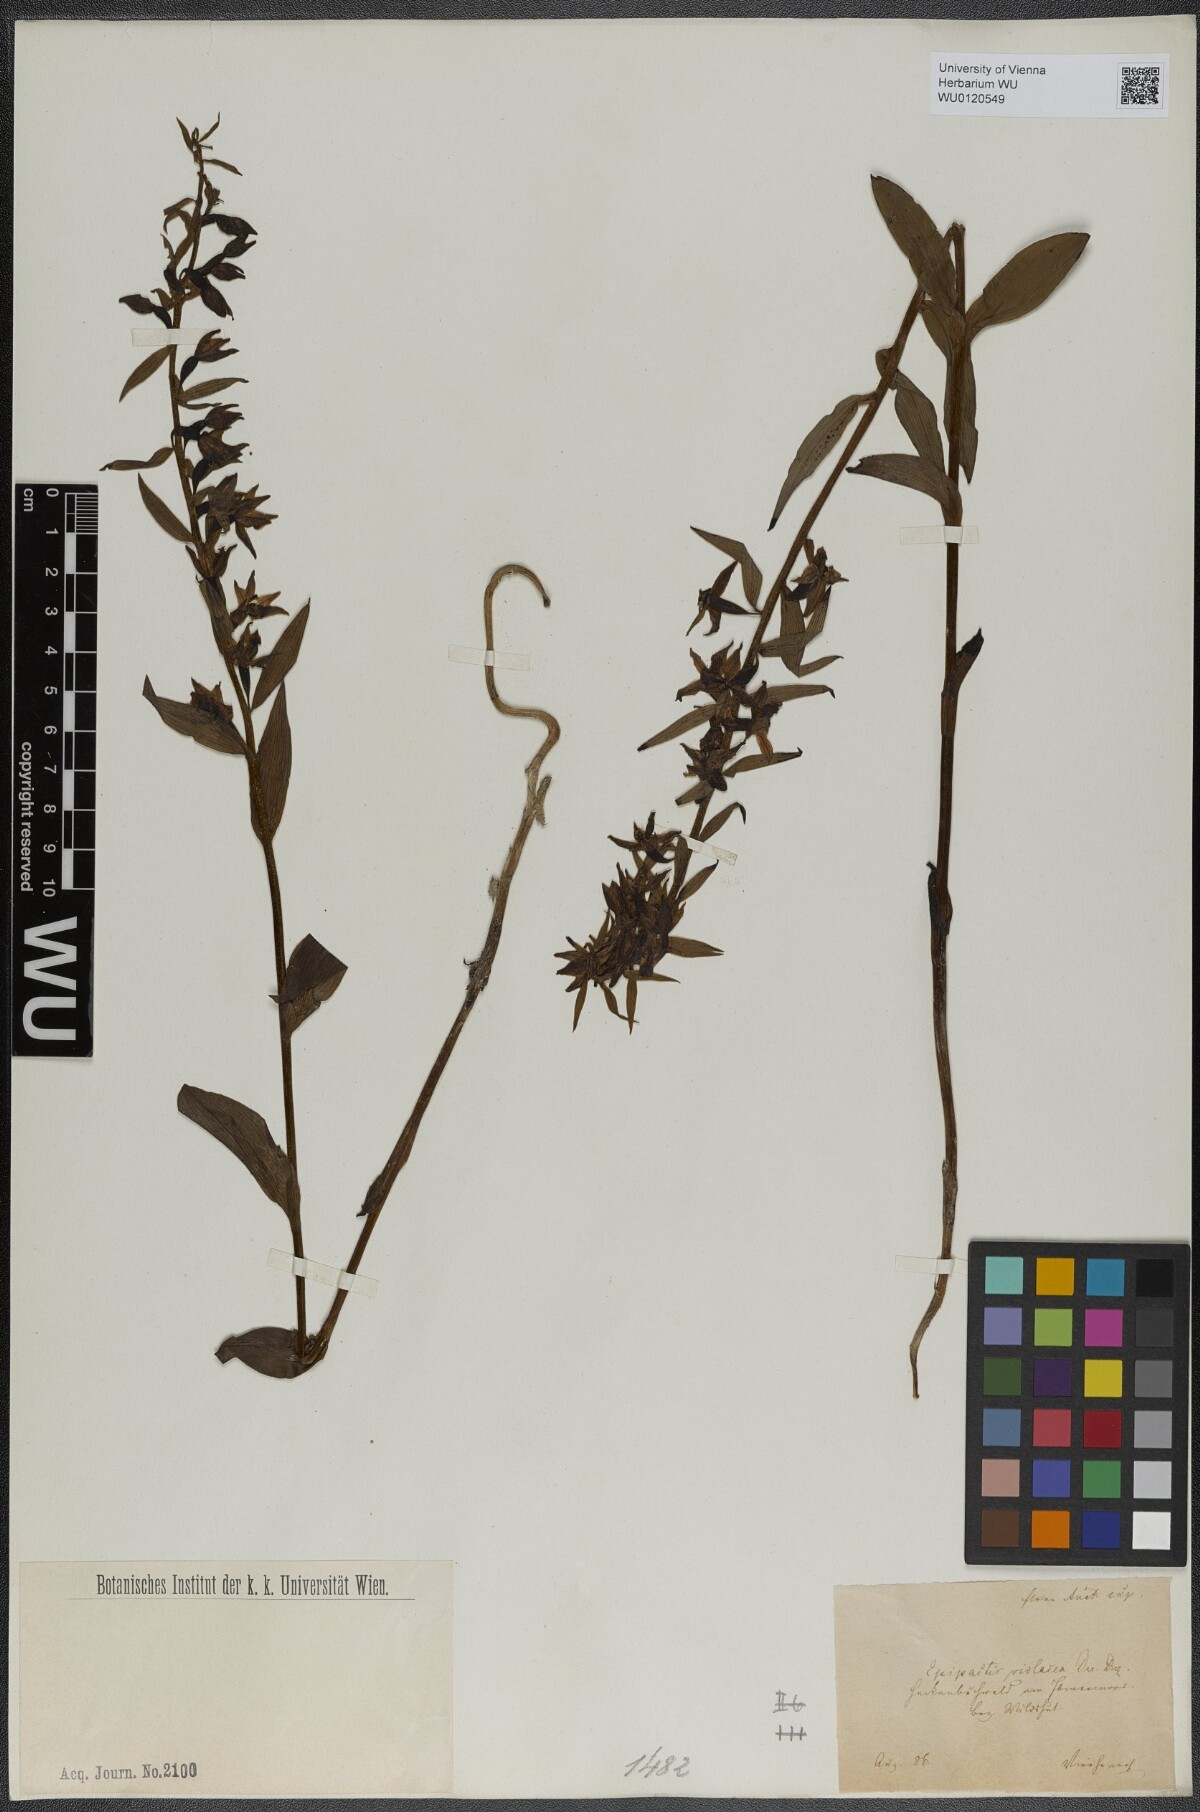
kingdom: Plantae
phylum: Tracheophyta
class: Liliopsida
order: Asparagales
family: Orchidaceae
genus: Epipactis
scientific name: Epipactis purpurata
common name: Violet helleborine
